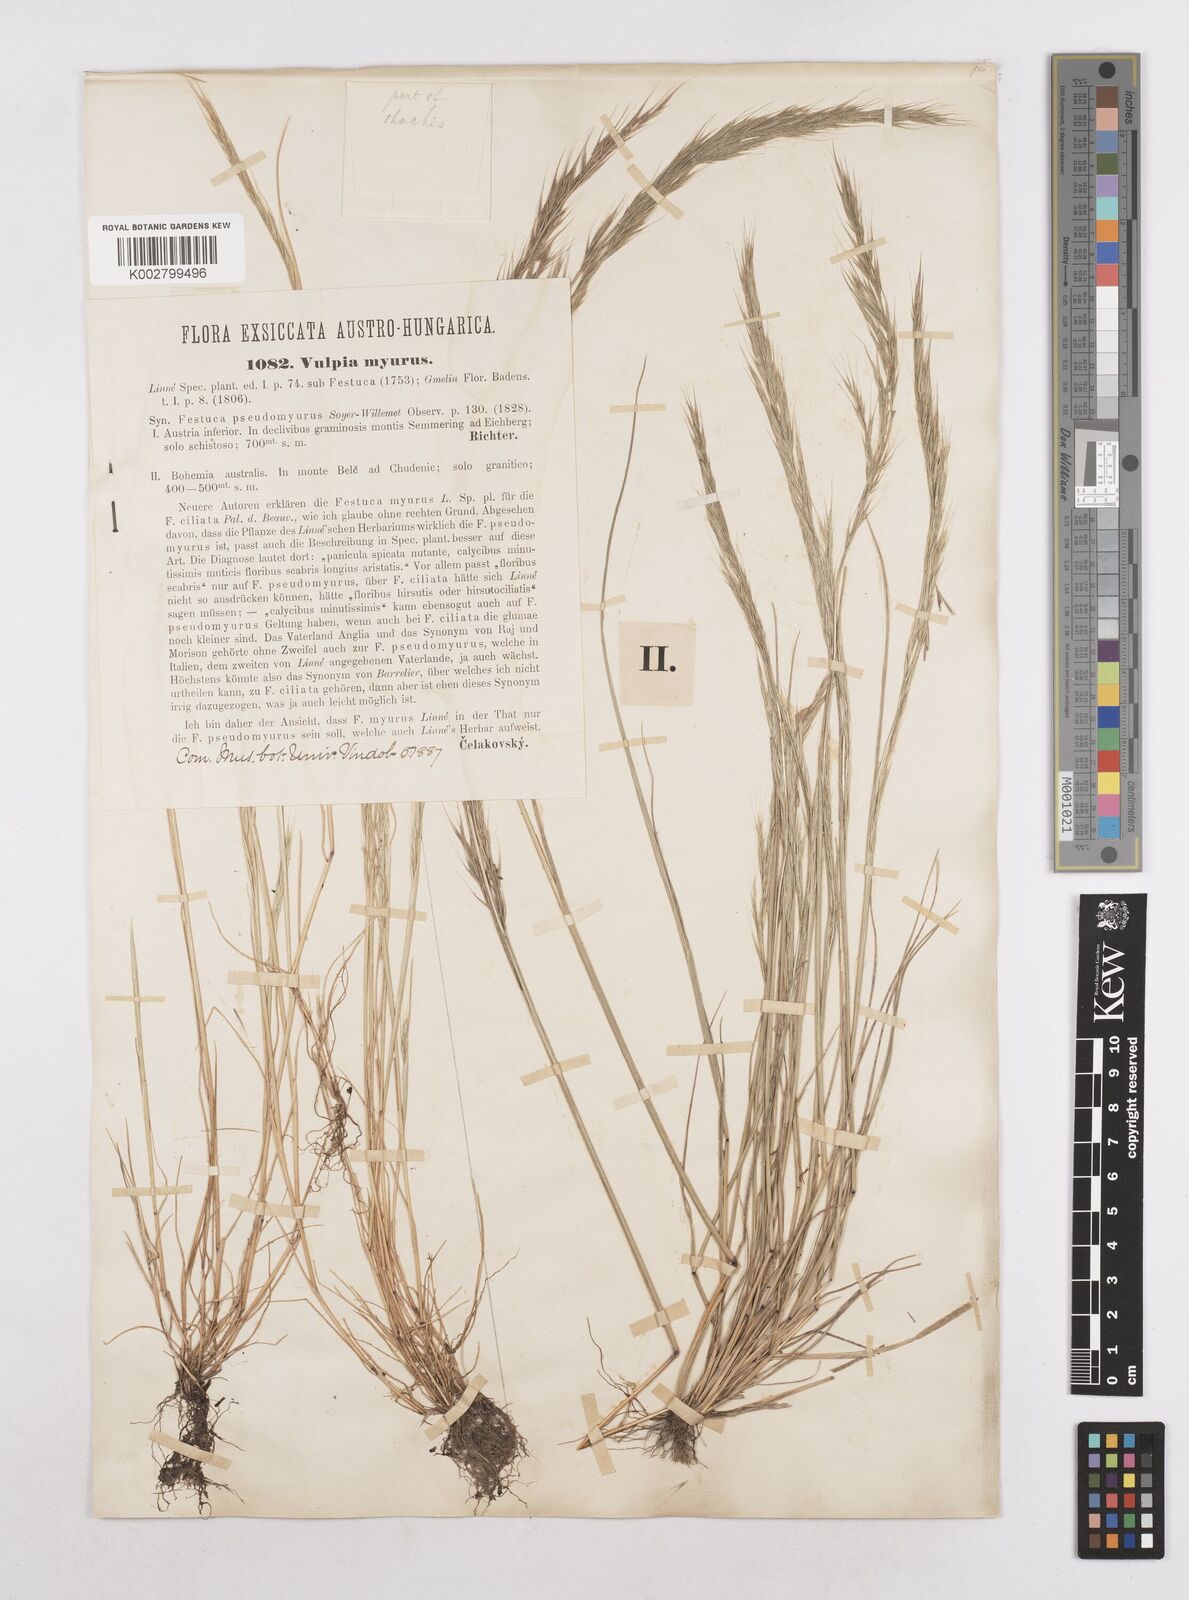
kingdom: Plantae
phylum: Tracheophyta
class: Liliopsida
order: Poales
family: Poaceae
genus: Festuca
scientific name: Festuca myuros
